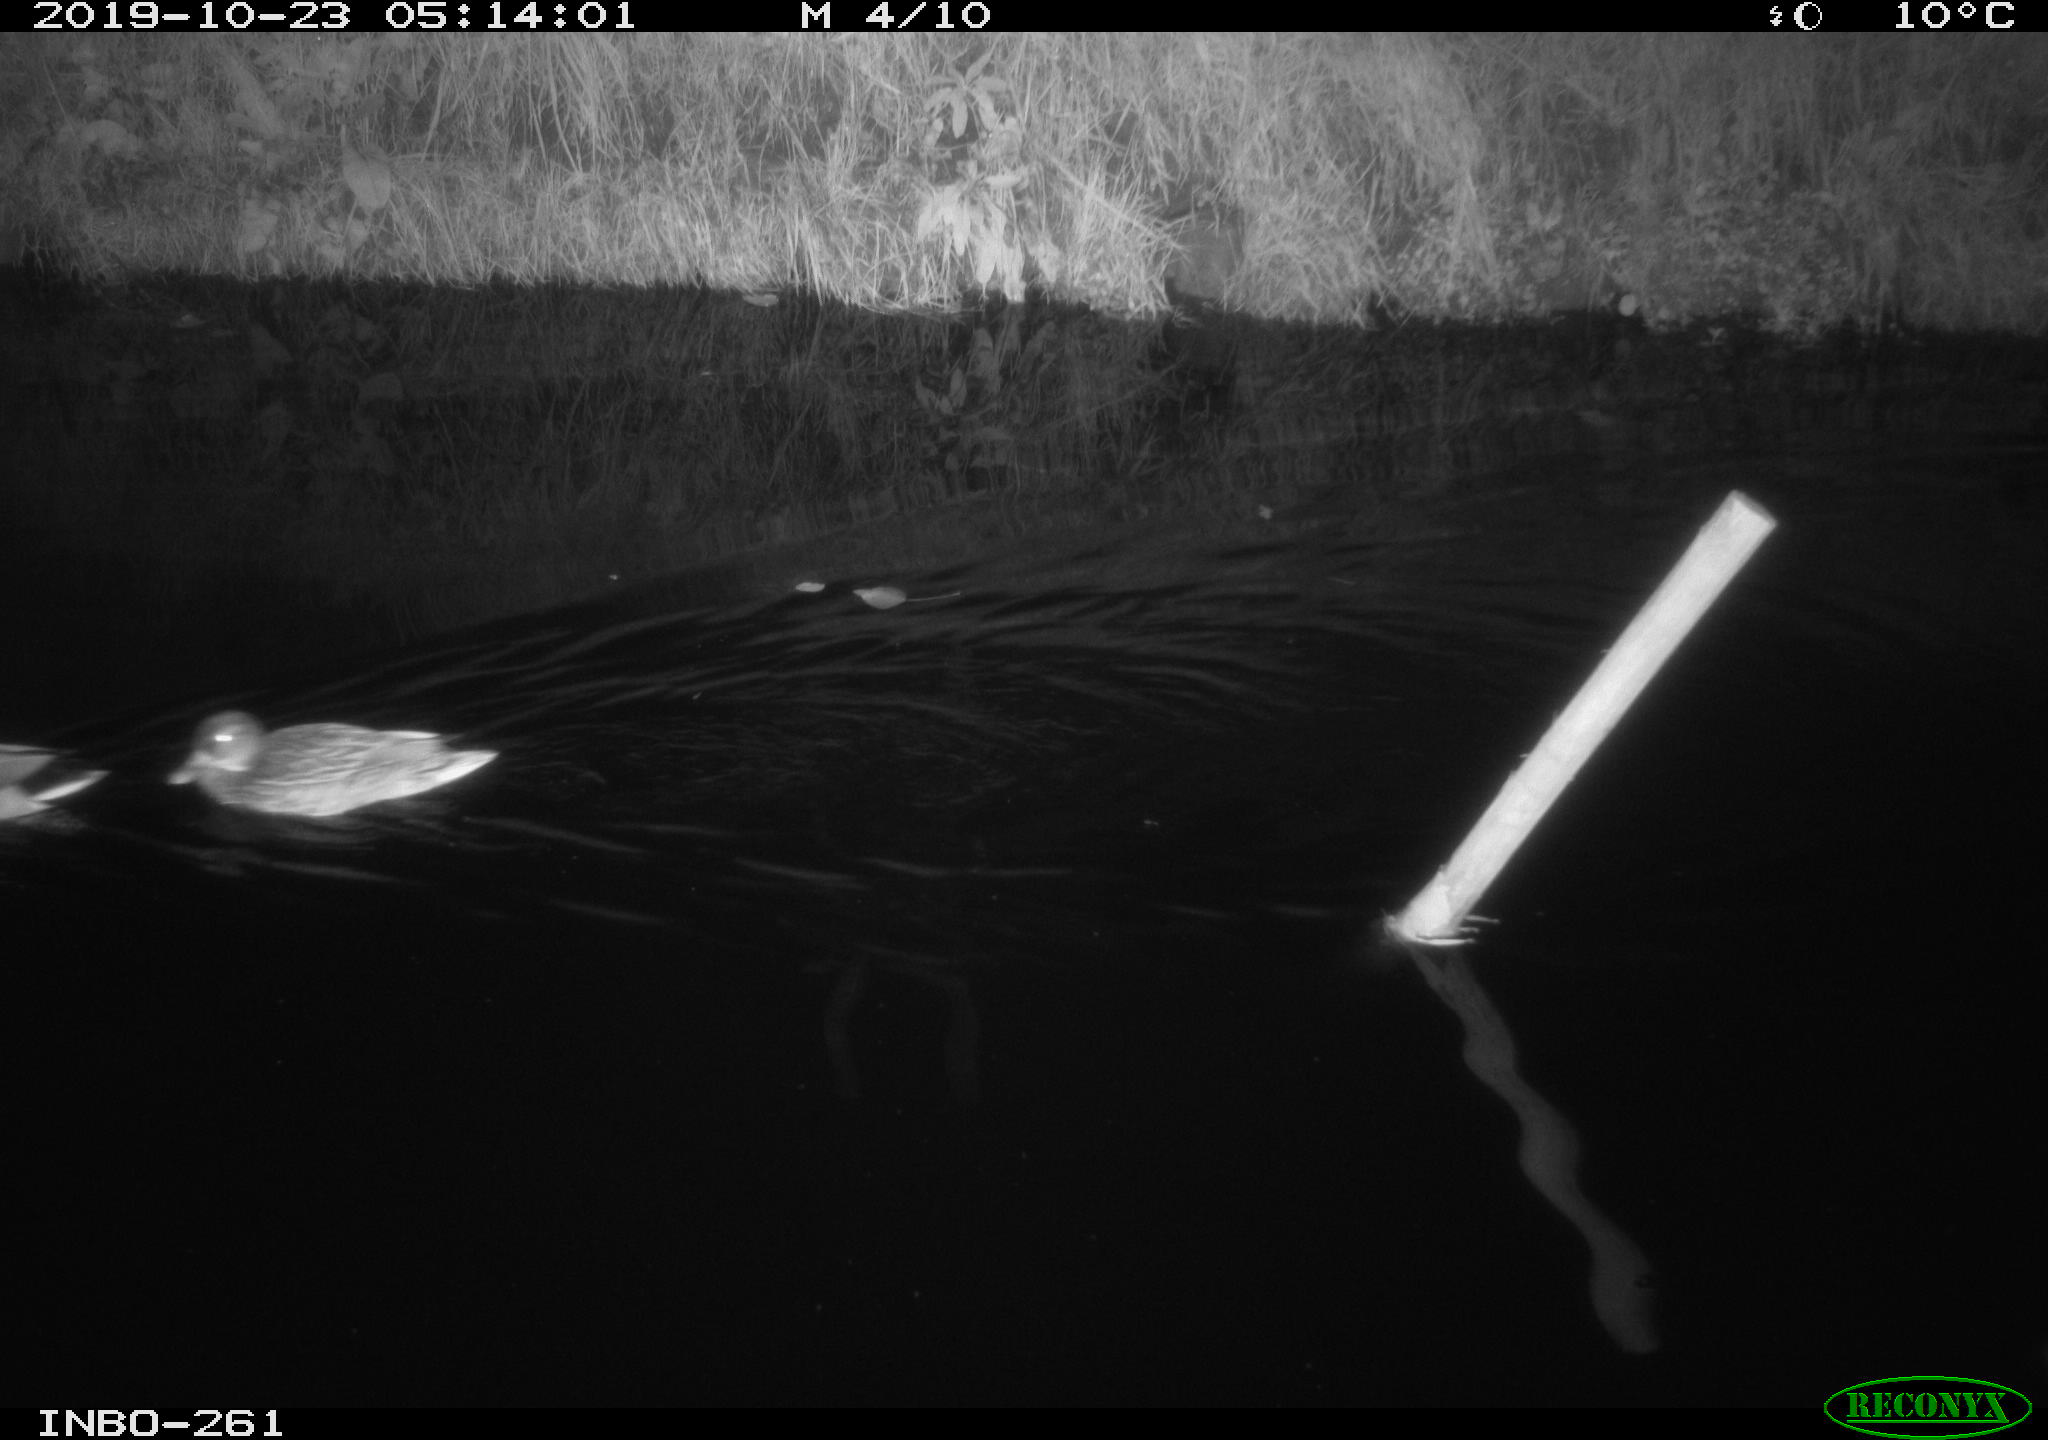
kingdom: Animalia
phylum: Chordata
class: Aves
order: Anseriformes
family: Anatidae
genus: Anas
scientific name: Anas platyrhynchos
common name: Mallard
